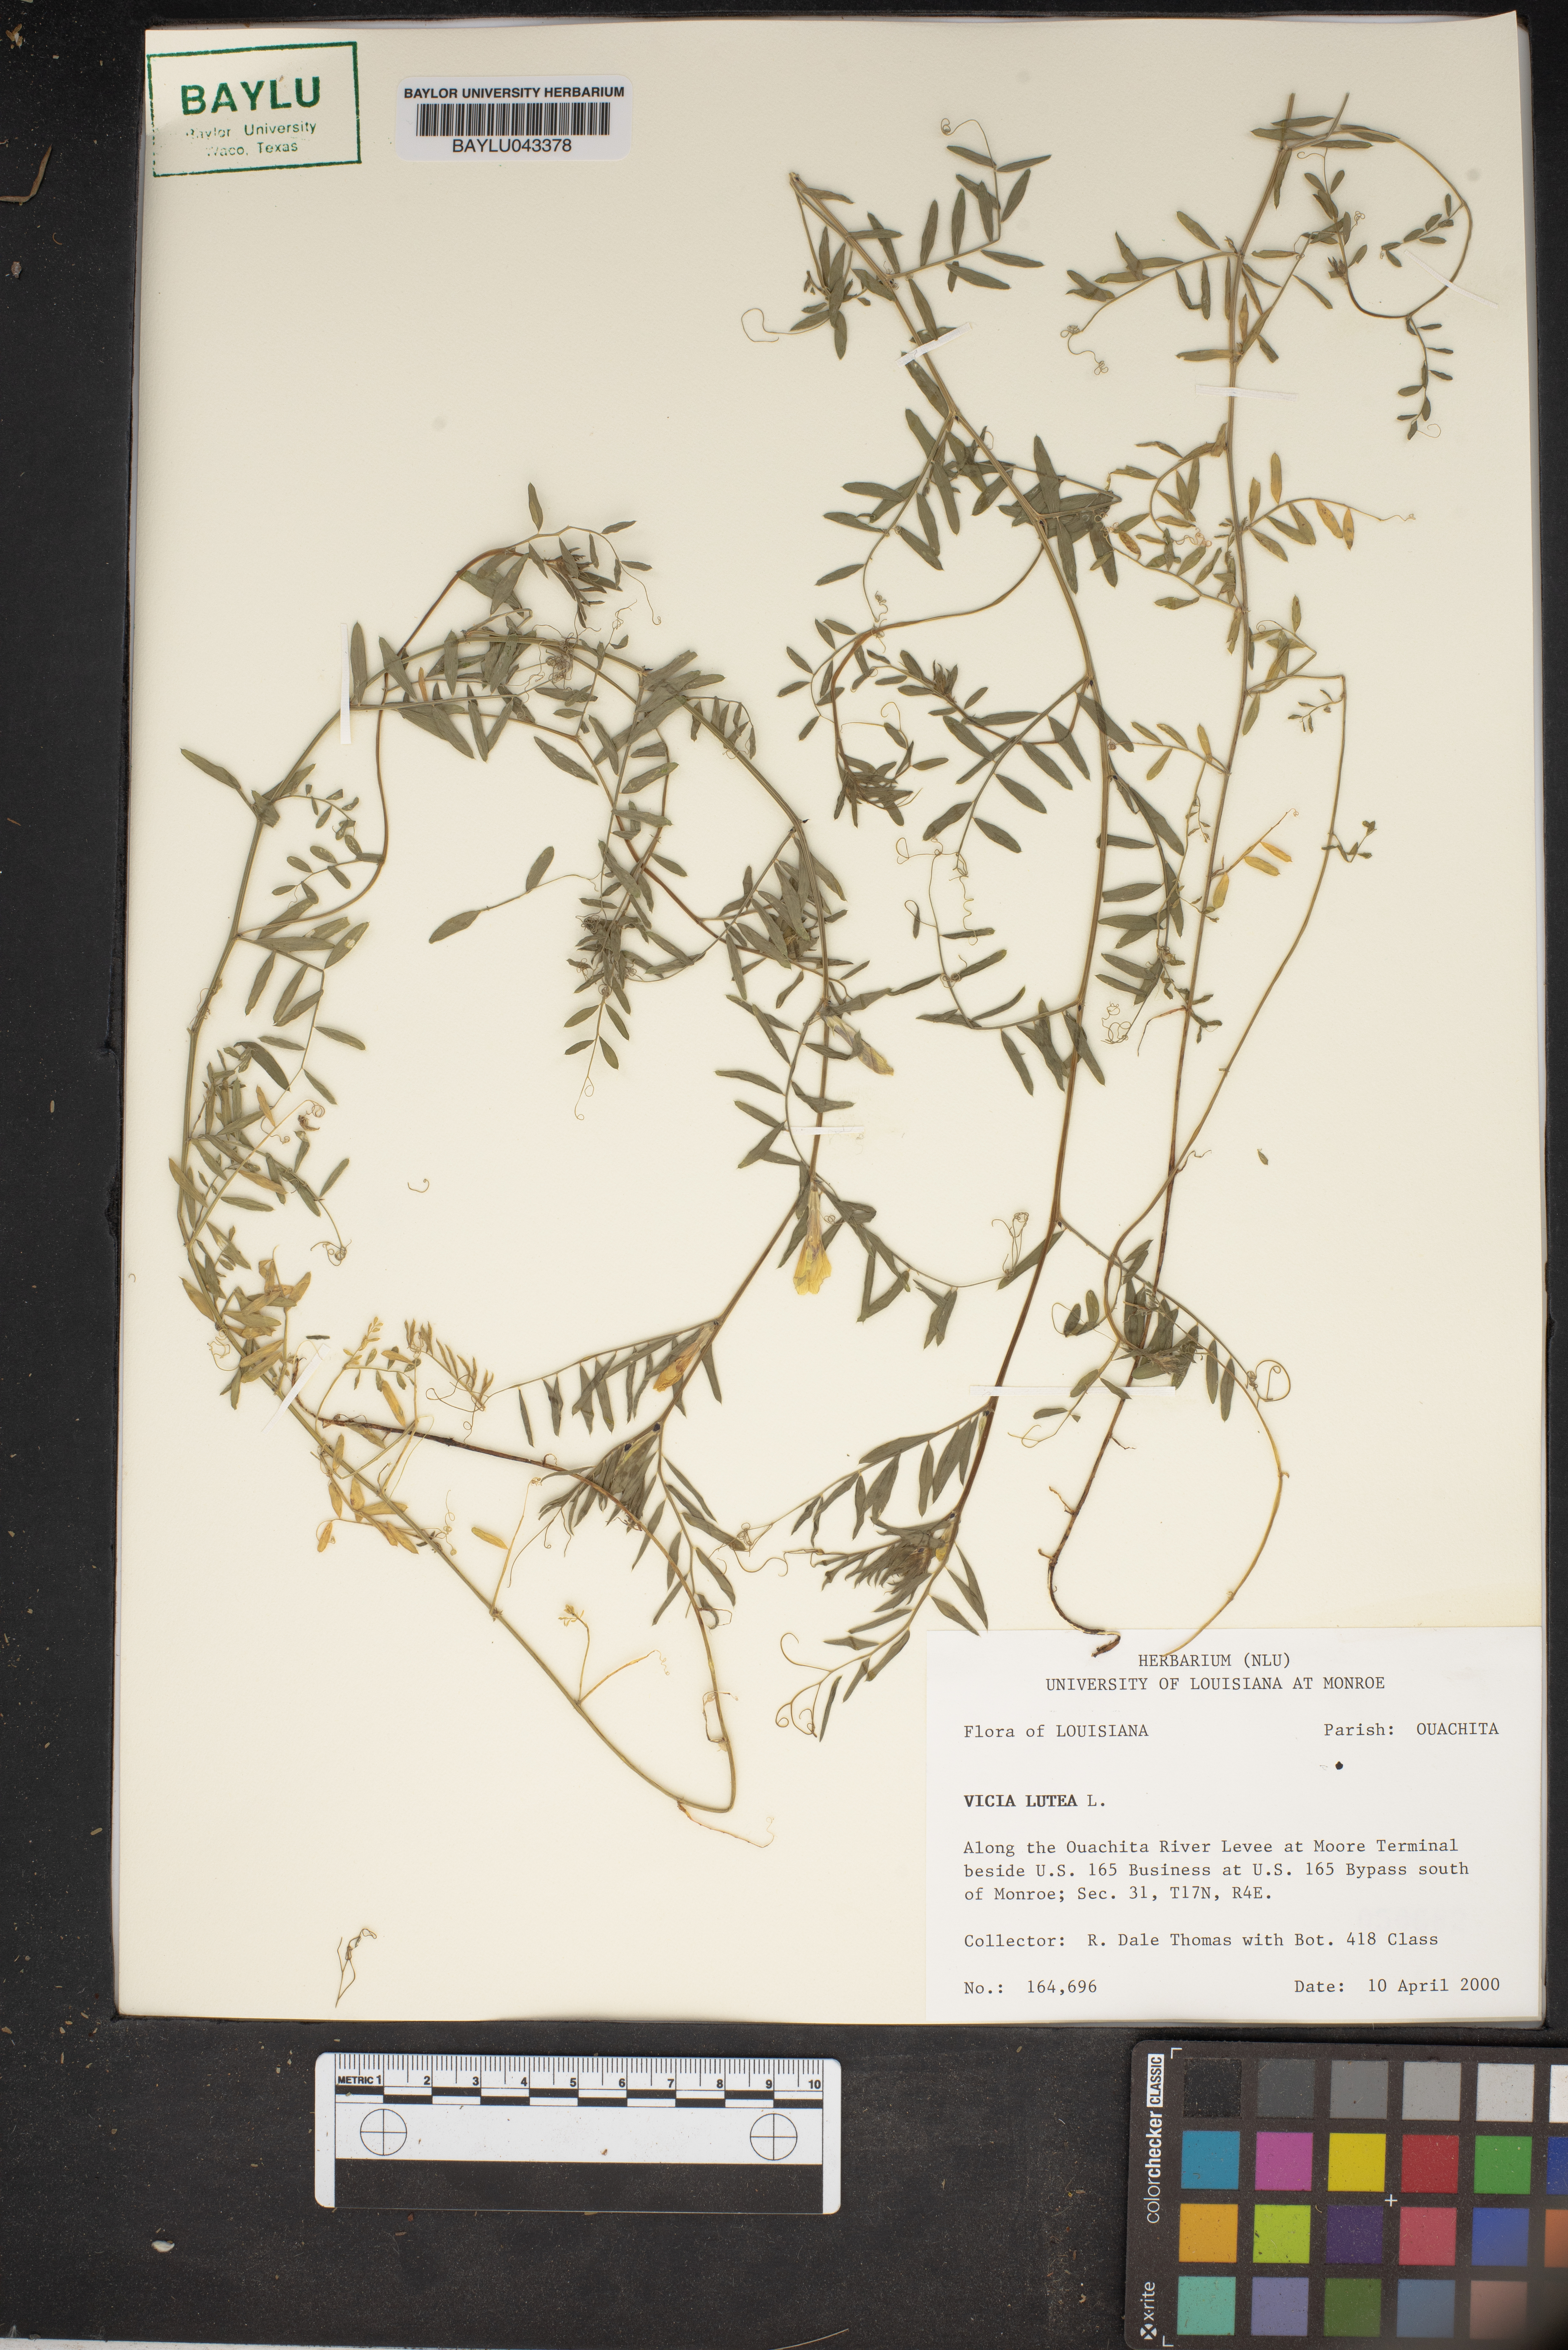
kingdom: Plantae
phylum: Tracheophyta
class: Magnoliopsida
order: Fabales
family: Fabaceae
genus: Vicia
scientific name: Vicia lutea
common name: Smooth yellow vetch
